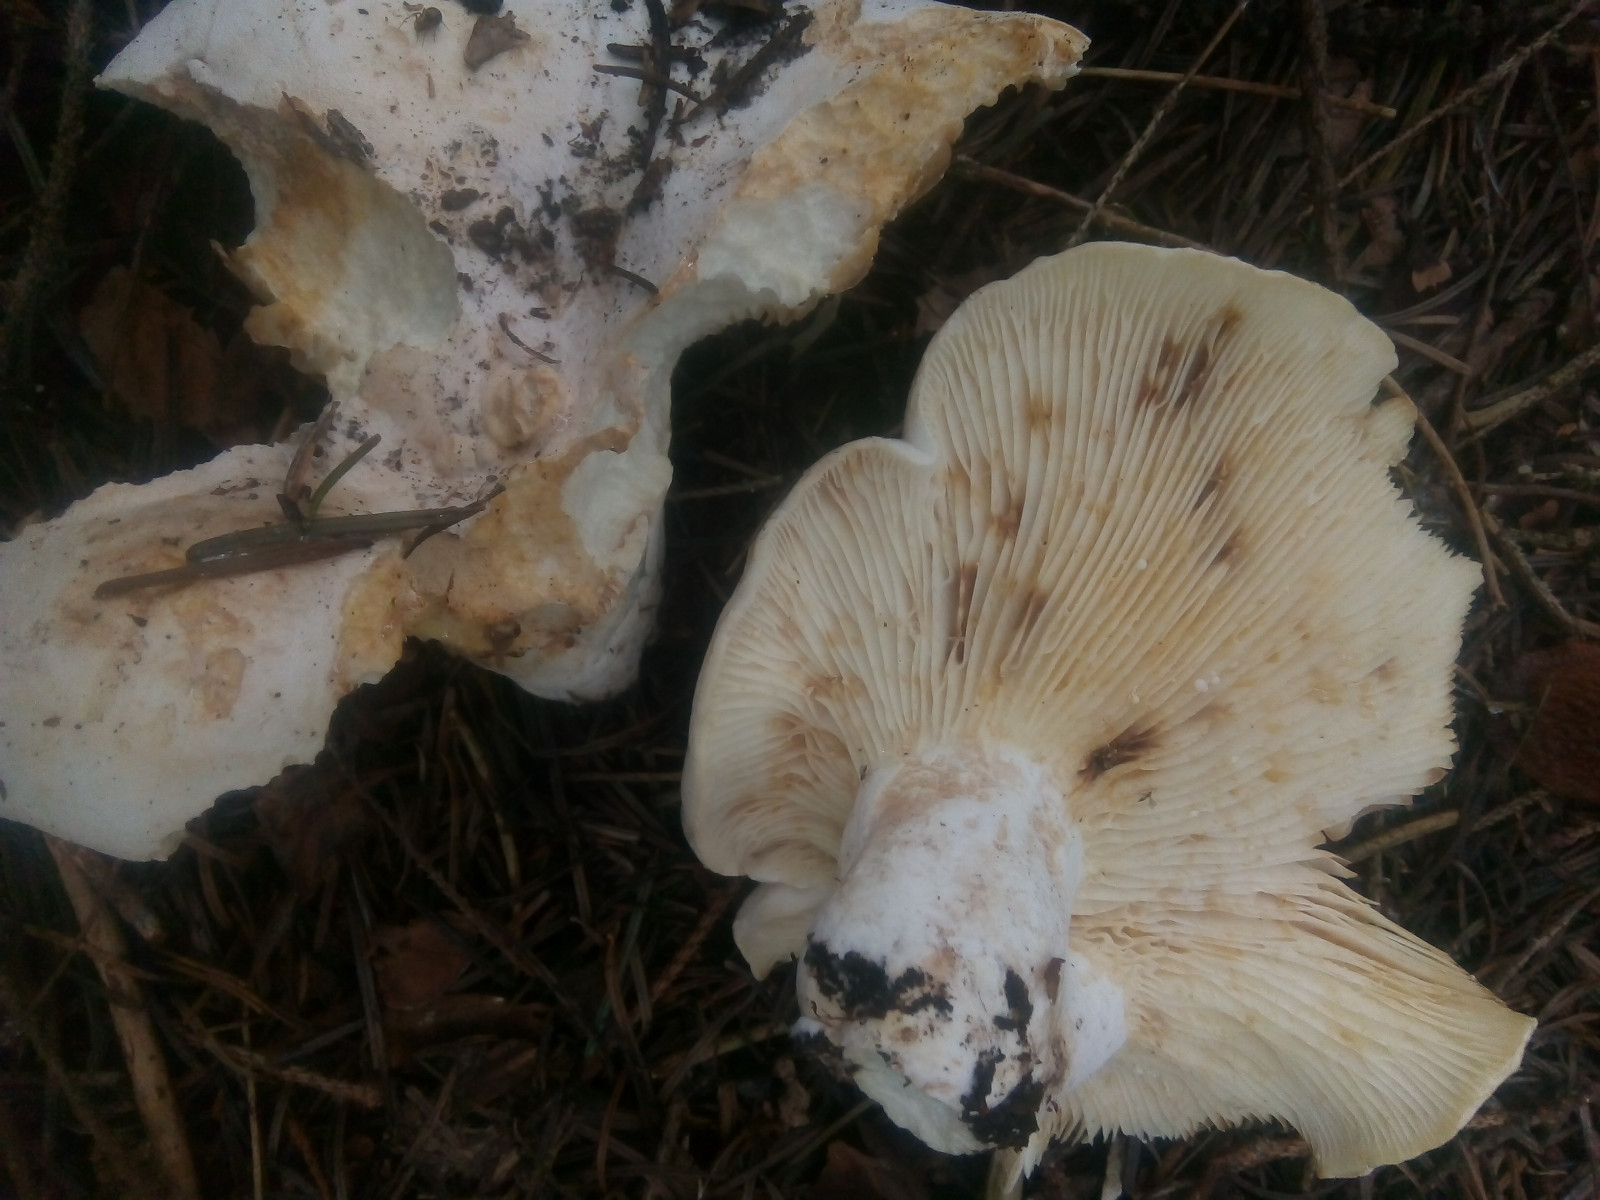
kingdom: Fungi
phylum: Basidiomycota
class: Agaricomycetes
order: Russulales
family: Russulaceae
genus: Lactifluus
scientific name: Lactifluus bertillonii
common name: blødfiltet mælkehat
